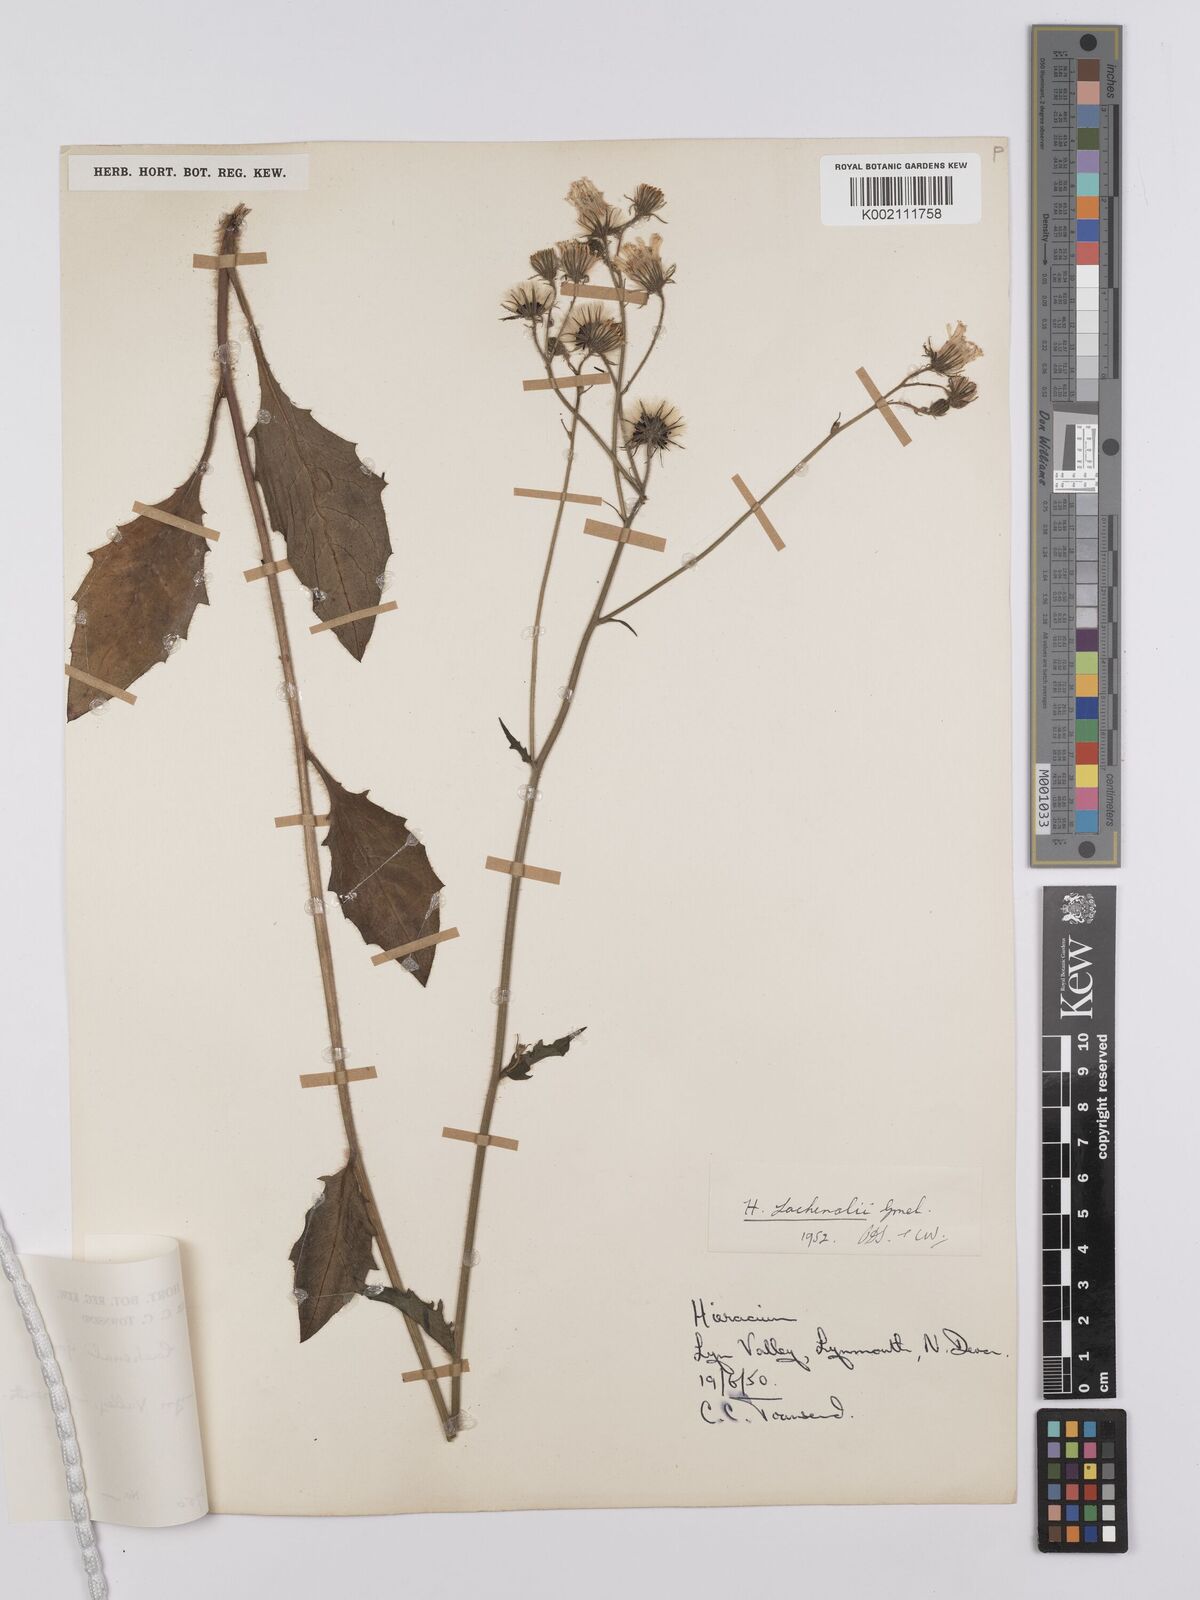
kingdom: Plantae
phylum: Tracheophyta
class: Magnoliopsida
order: Asterales
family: Asteraceae
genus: Hieracium
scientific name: Hieracium lachenalii
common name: Common hawkweed
